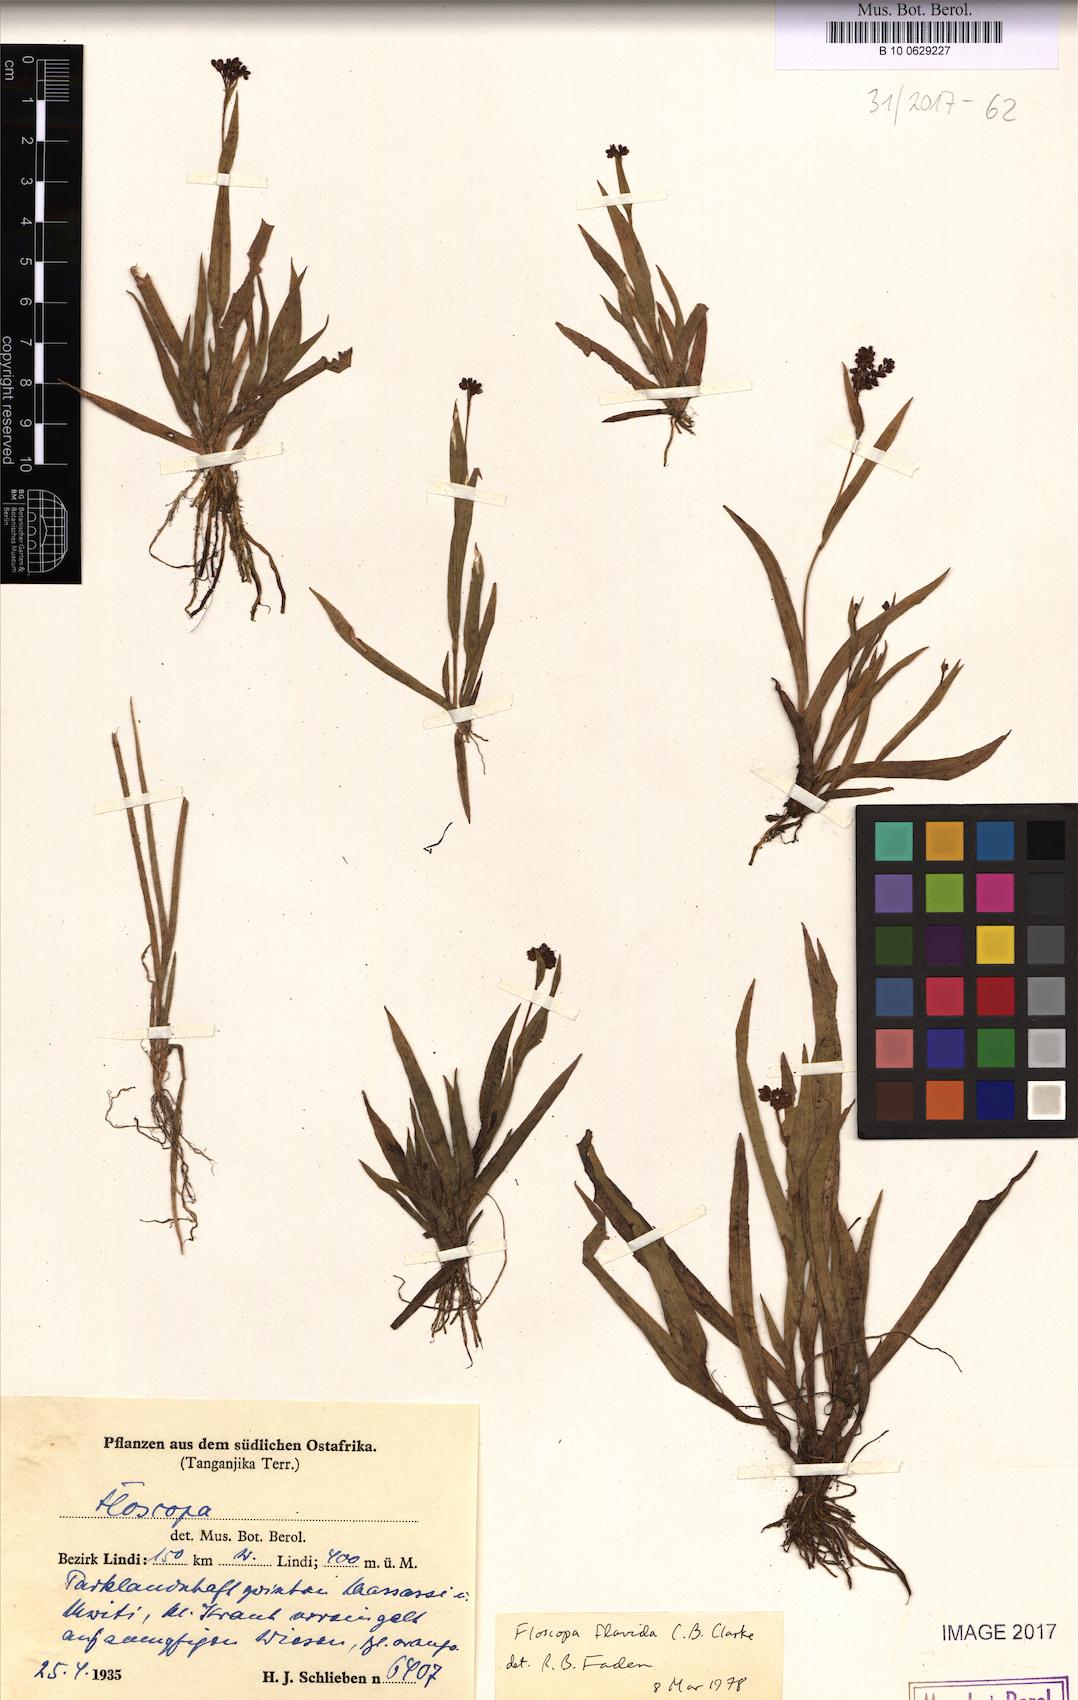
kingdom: Plantae
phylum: Tracheophyta
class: Liliopsida
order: Commelinales
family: Commelinaceae
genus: Floscopa
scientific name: Floscopa flavida
